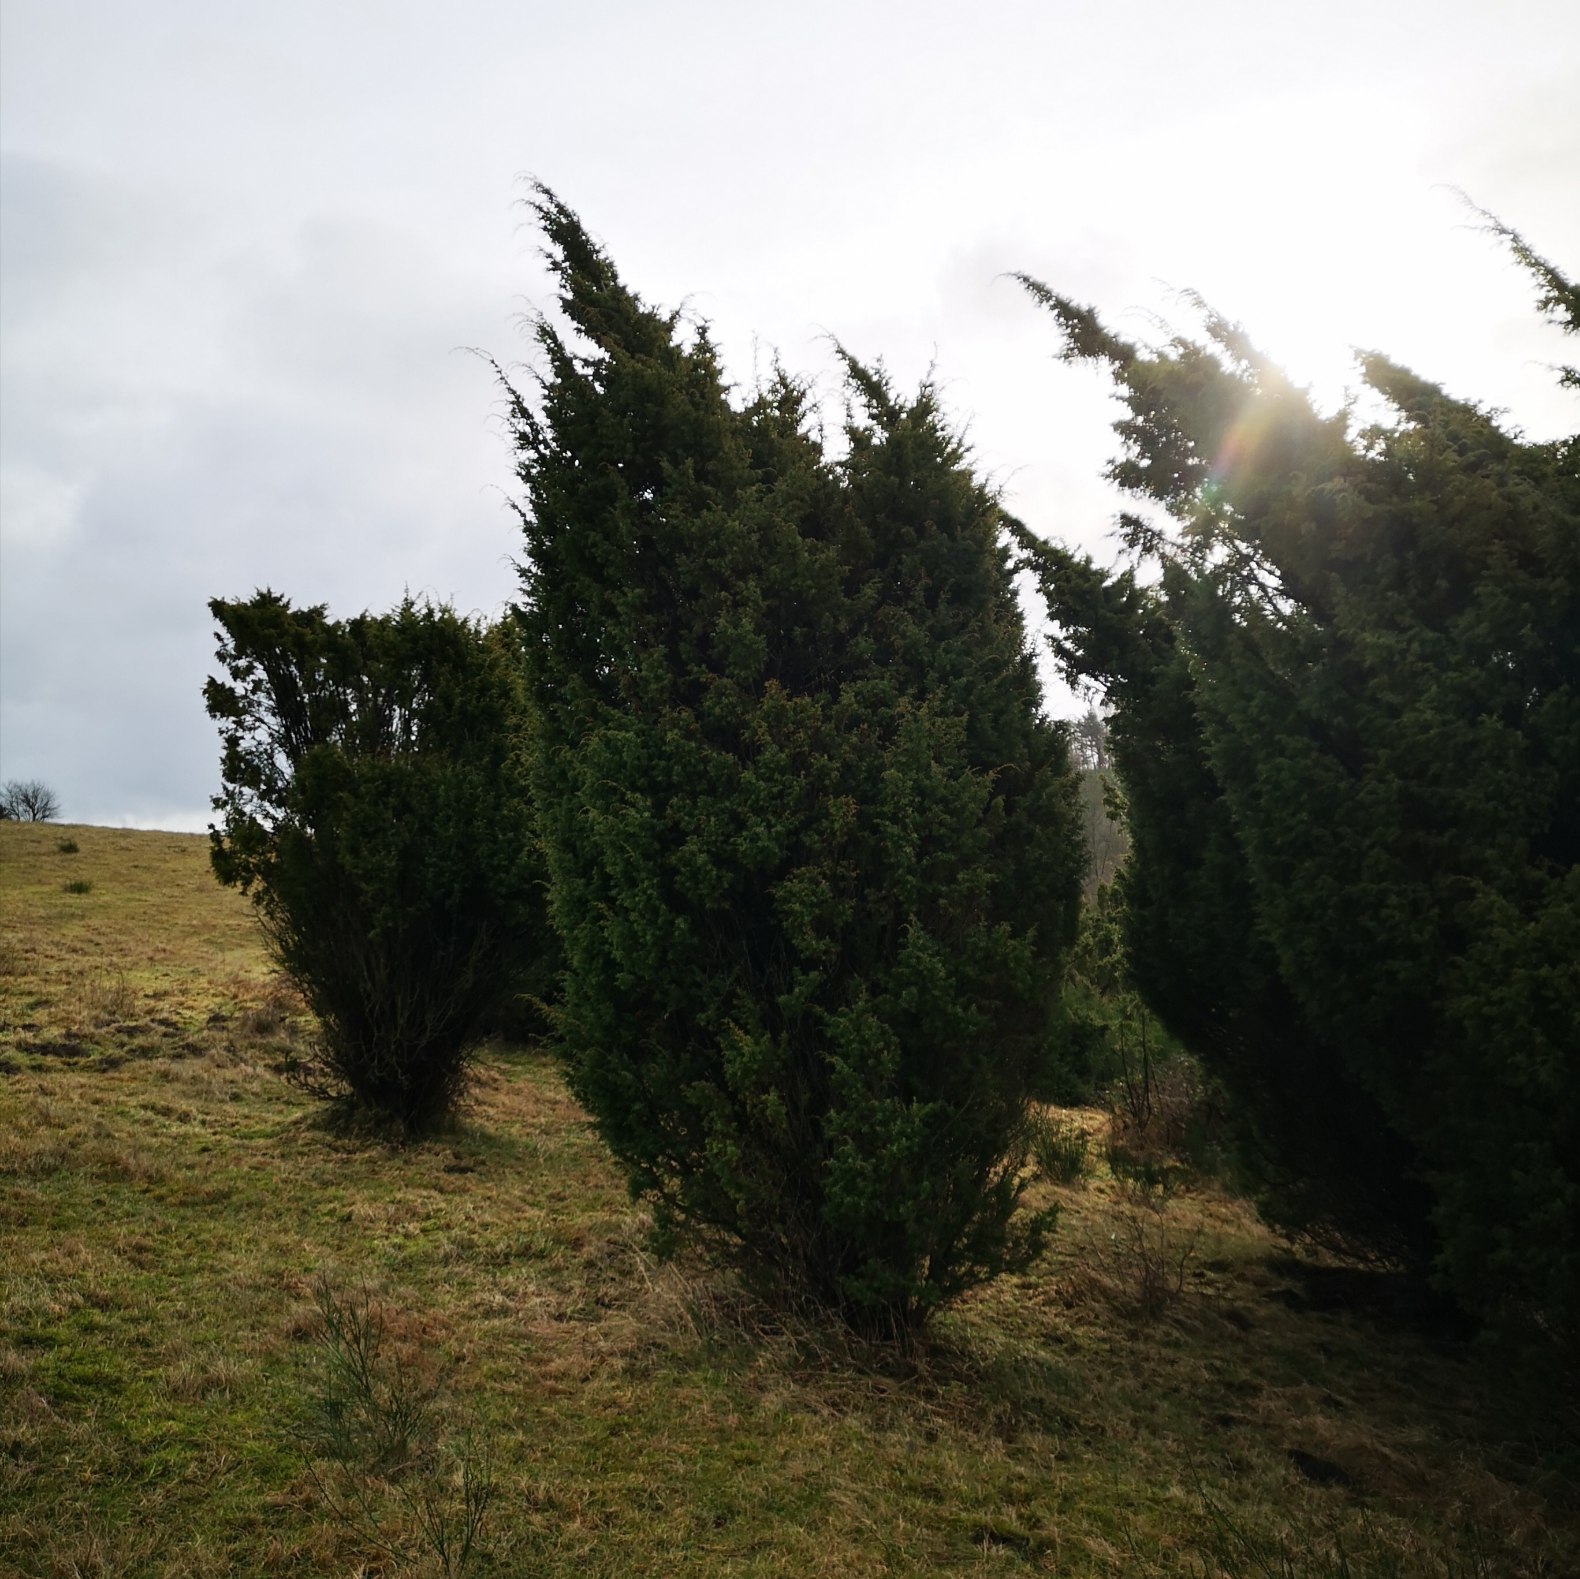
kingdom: Plantae
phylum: Tracheophyta
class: Pinopsida
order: Pinales
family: Cupressaceae
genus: Juniperus
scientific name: Juniperus communis
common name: Almindelig ene
